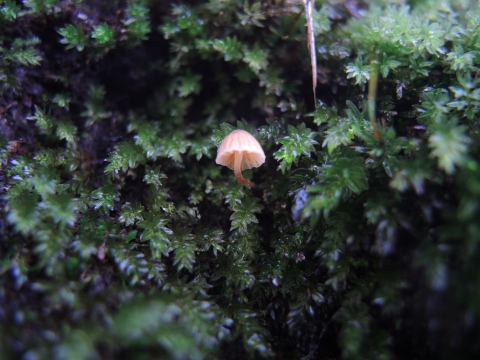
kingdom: Fungi
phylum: Basidiomycota
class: Agaricomycetes
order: Agaricales
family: Hymenogastraceae
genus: Galerina
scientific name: Galerina cerina
